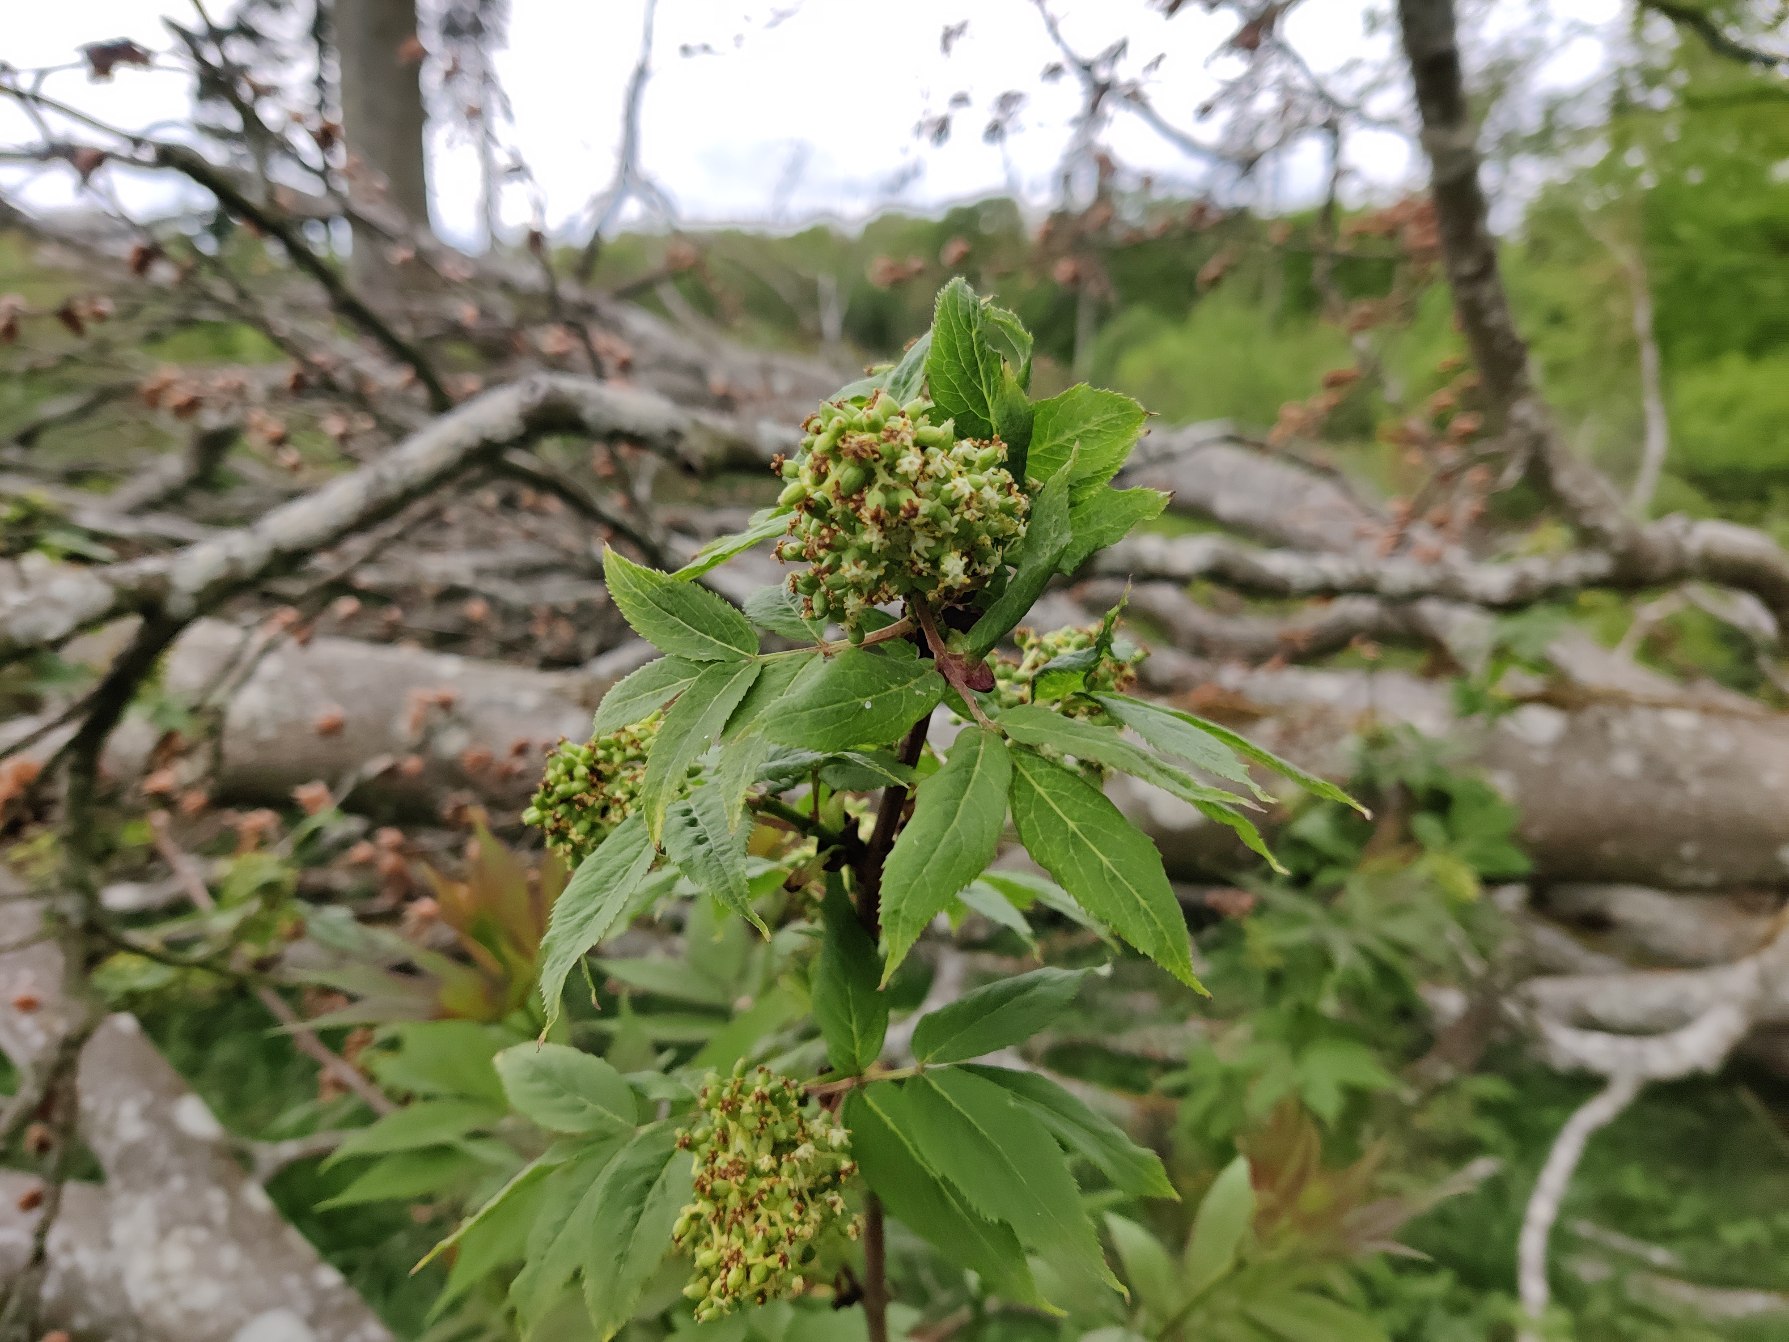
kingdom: Plantae
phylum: Tracheophyta
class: Magnoliopsida
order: Dipsacales
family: Viburnaceae
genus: Sambucus
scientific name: Sambucus racemosa
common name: Drue-hyld
